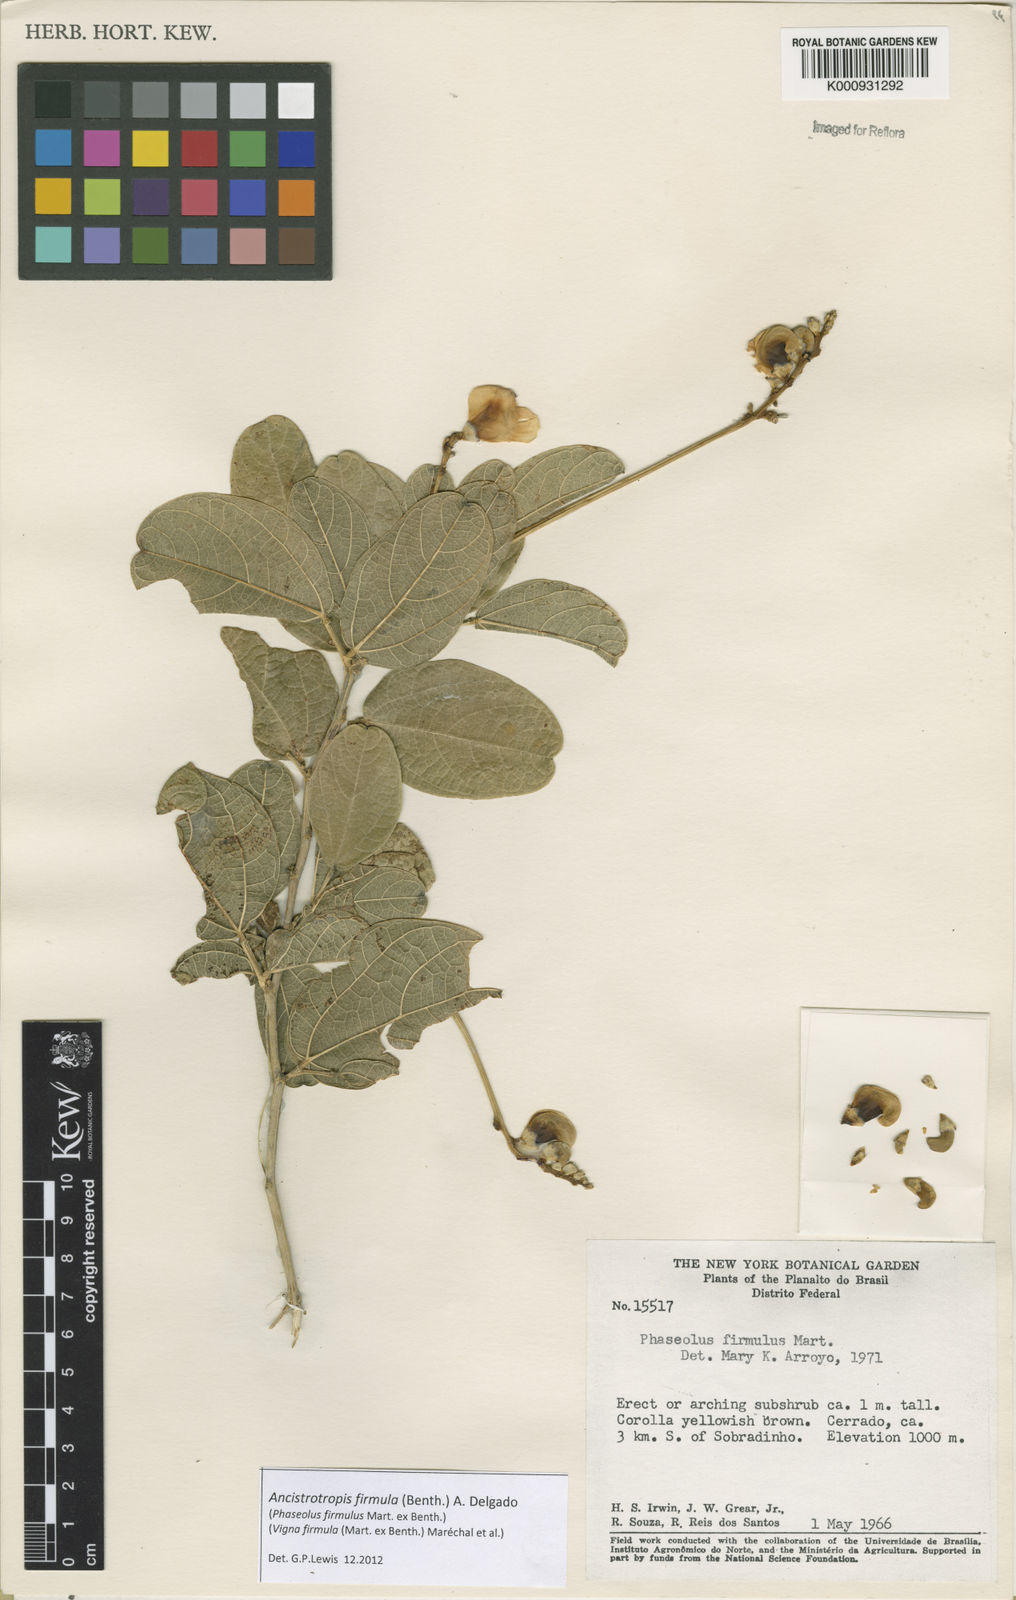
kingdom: Plantae
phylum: Tracheophyta
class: Magnoliopsida
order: Fabales
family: Fabaceae
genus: Ancistrotropis
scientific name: Ancistrotropis firmula
